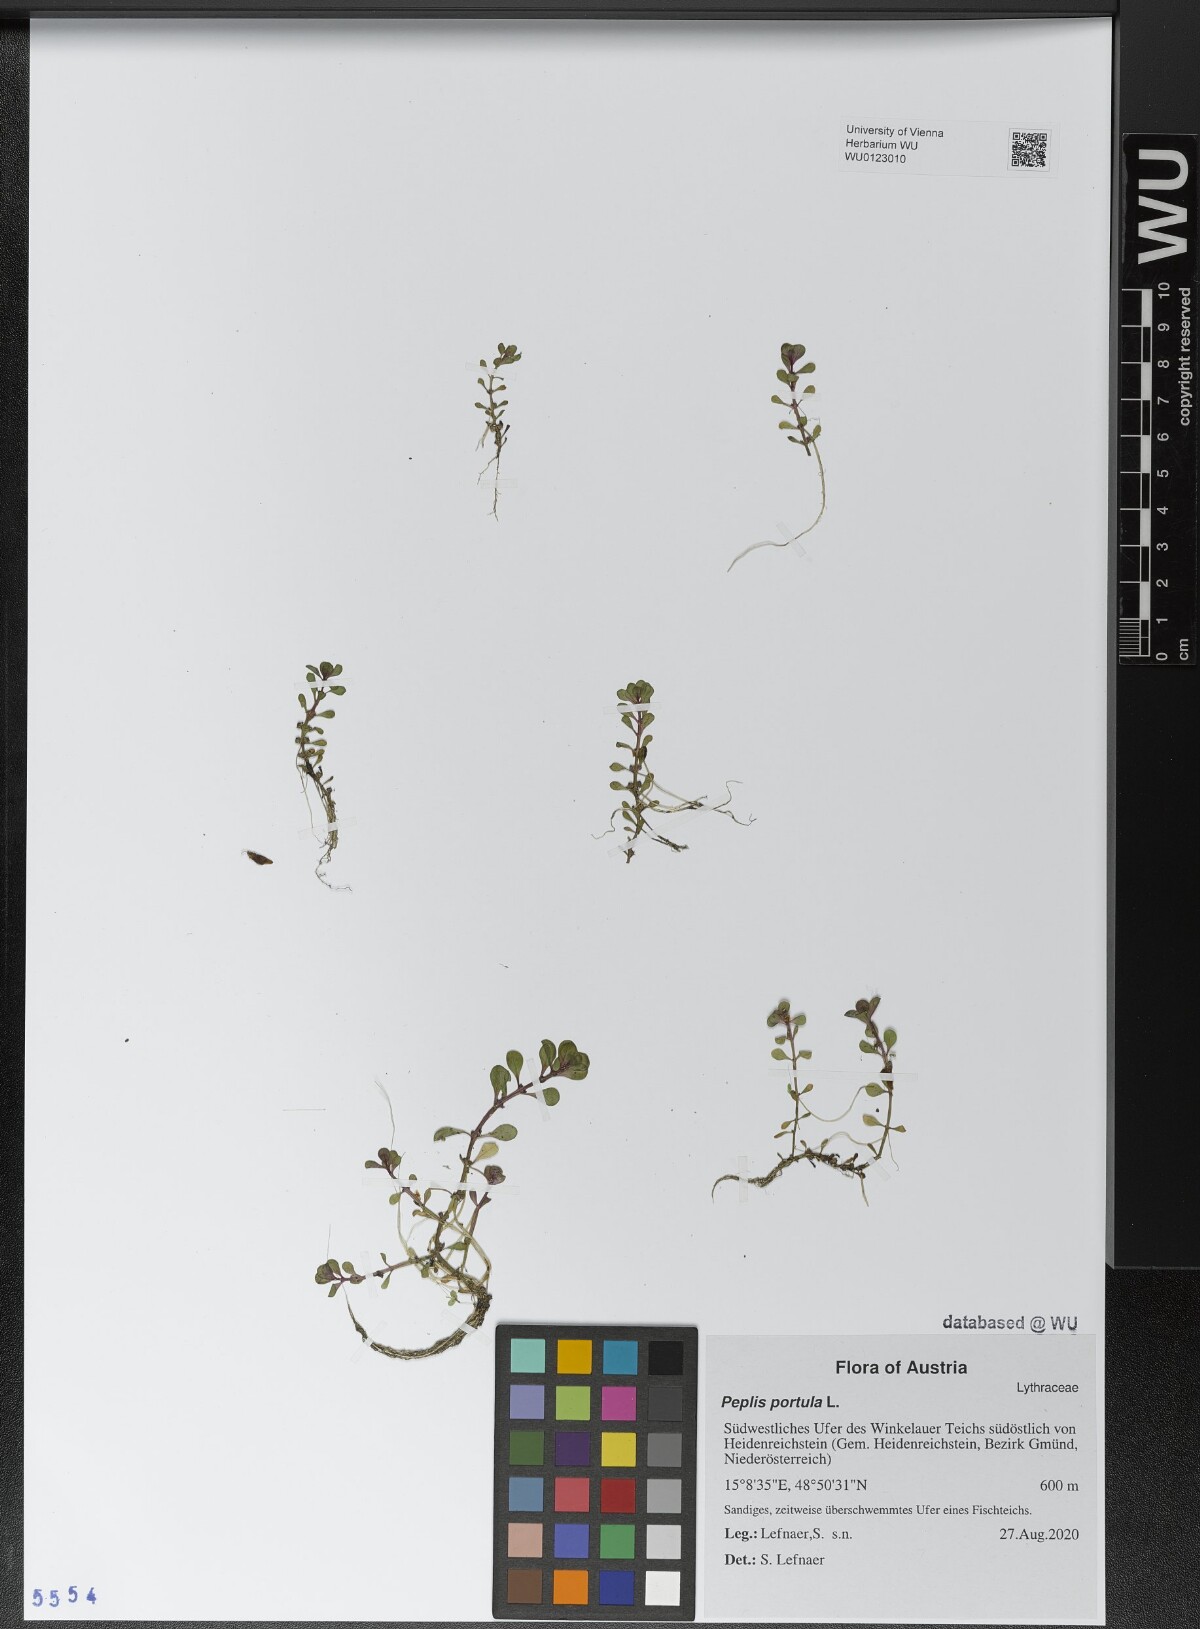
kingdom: Plantae
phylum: Tracheophyta
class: Magnoliopsida
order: Myrtales
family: Lythraceae
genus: Lythrum
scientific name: Lythrum portula
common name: Water purslane
